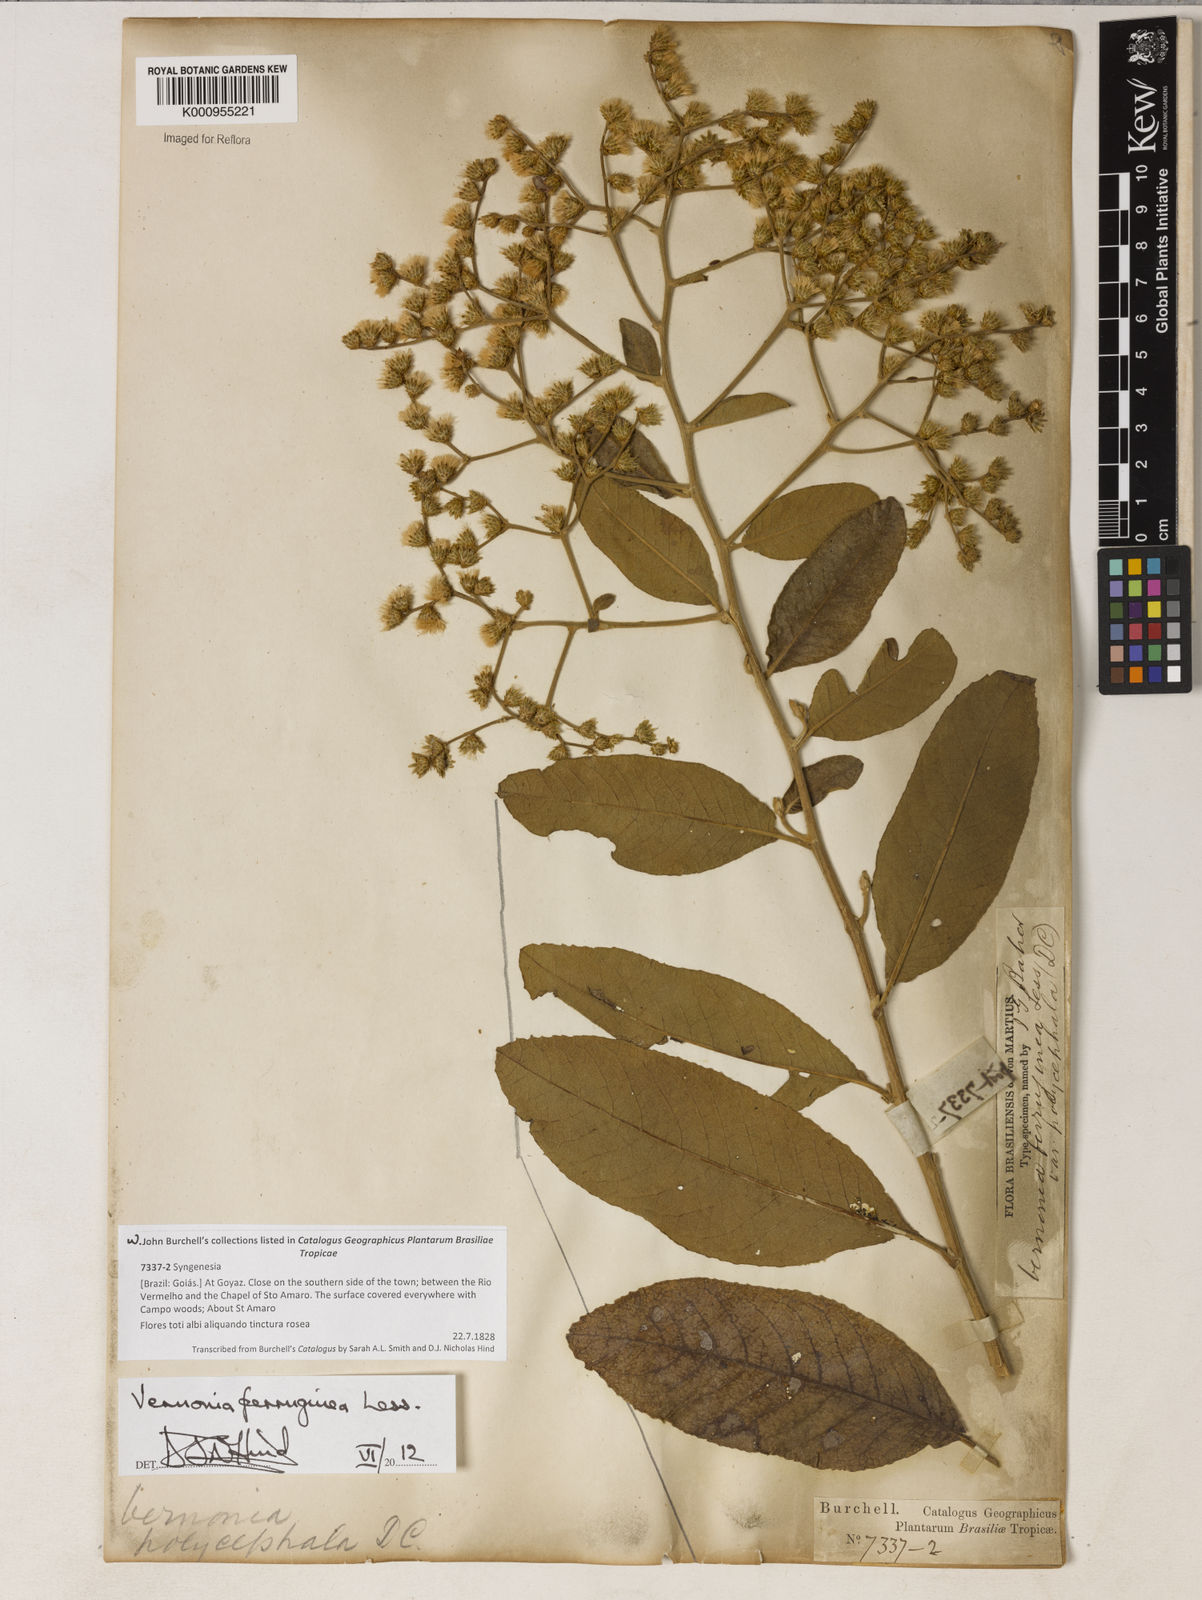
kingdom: Plantae
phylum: Tracheophyta
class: Magnoliopsida
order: Asterales
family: Asteraceae
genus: Vernonanthura
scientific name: Vernonanthura ferruginea
